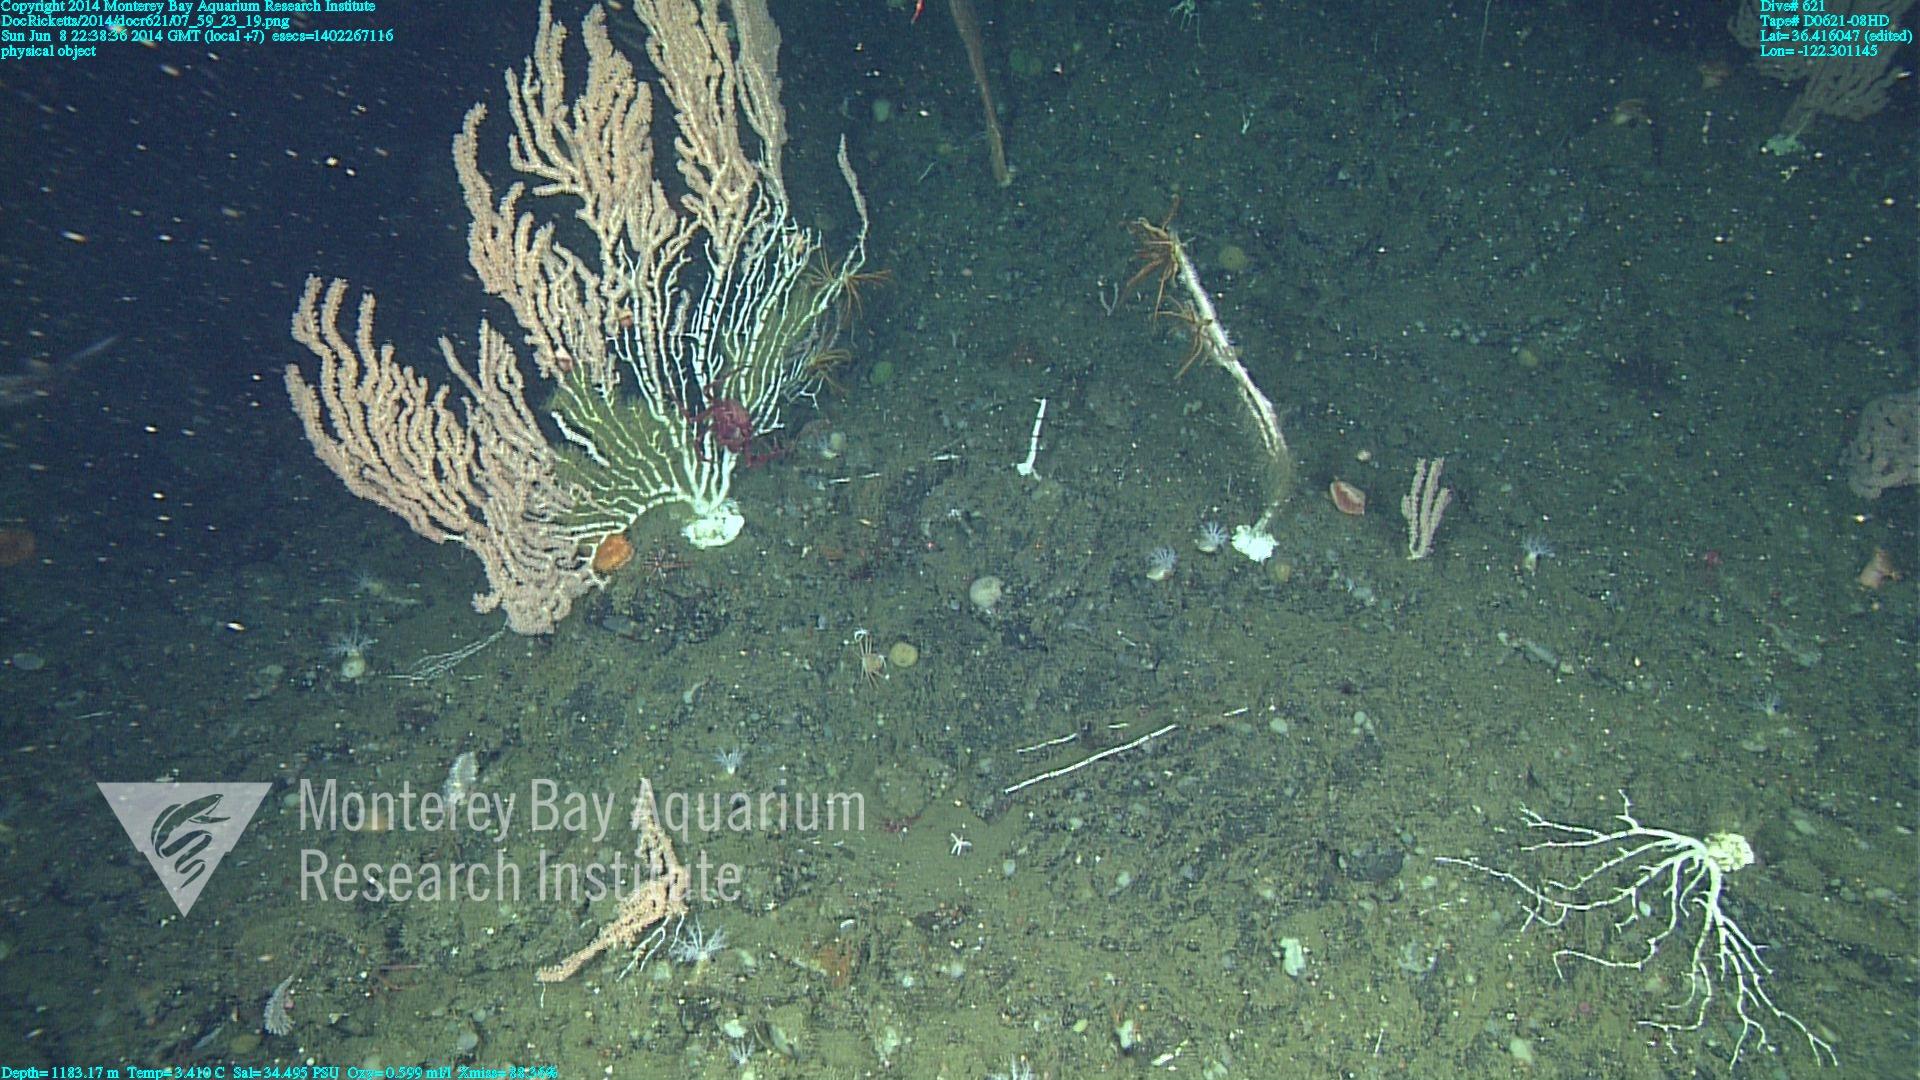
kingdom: Animalia
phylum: Cnidaria
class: Anthozoa
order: Scleralcyonacea
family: Keratoisididae
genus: Keratoisis
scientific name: Keratoisis
